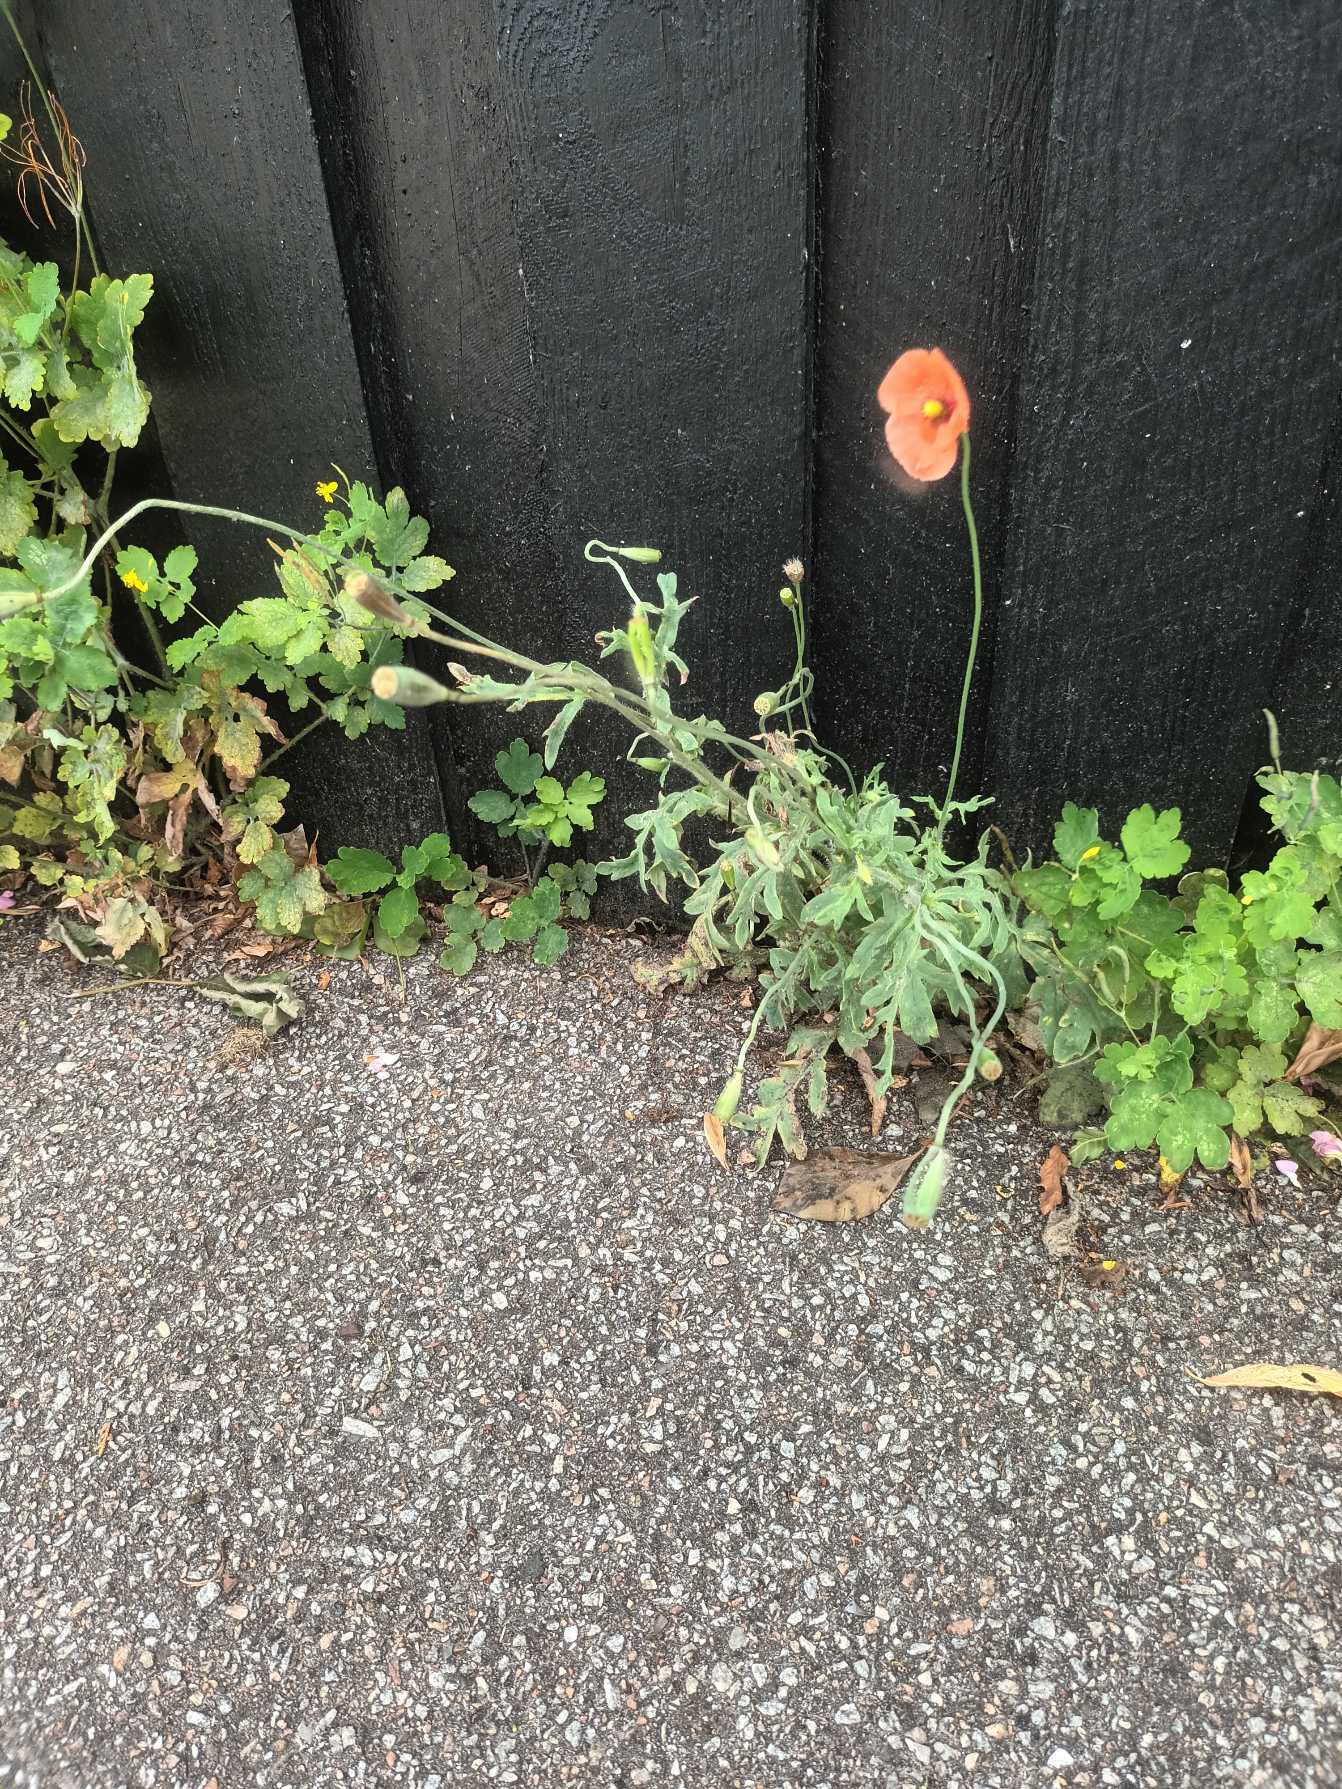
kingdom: Plantae
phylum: Tracheophyta
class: Magnoliopsida
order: Ranunculales
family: Papaveraceae
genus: Papaver
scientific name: Papaver dubium
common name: Gærde-valmue
